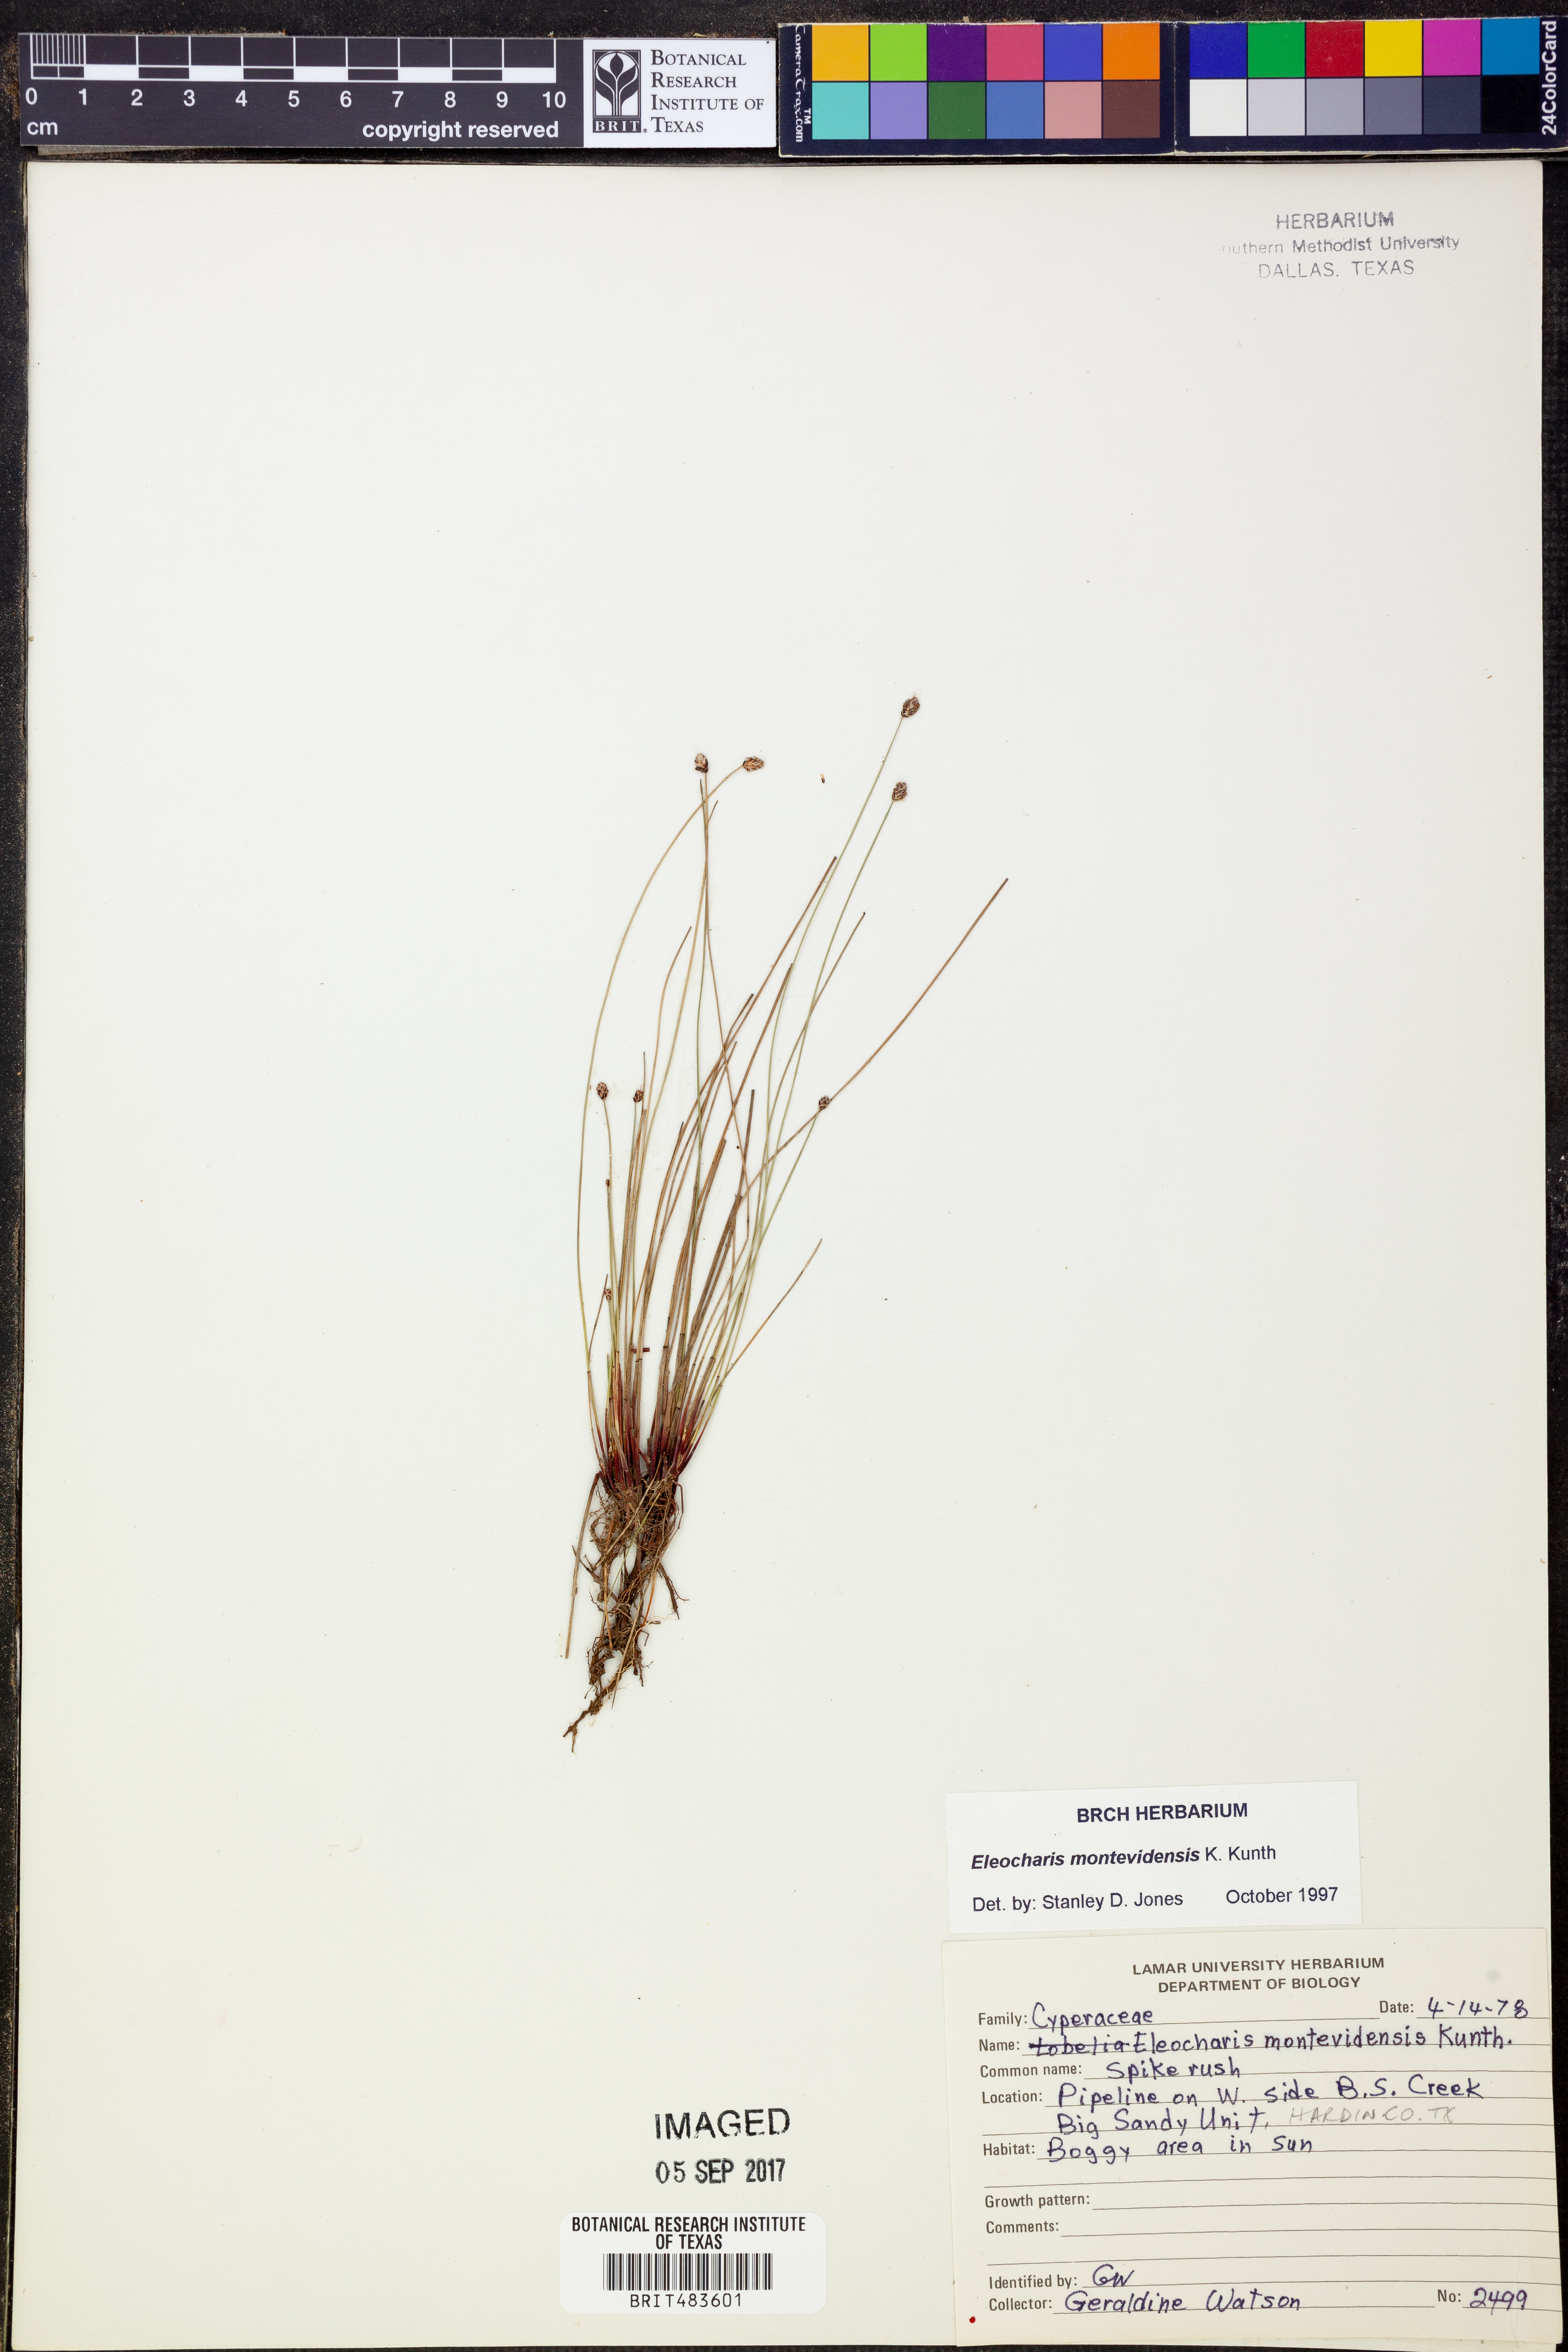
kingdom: Plantae
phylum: Tracheophyta
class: Liliopsida
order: Poales
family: Cyperaceae
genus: Eleocharis
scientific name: Eleocharis montevidensis
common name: Sand spike-rush
